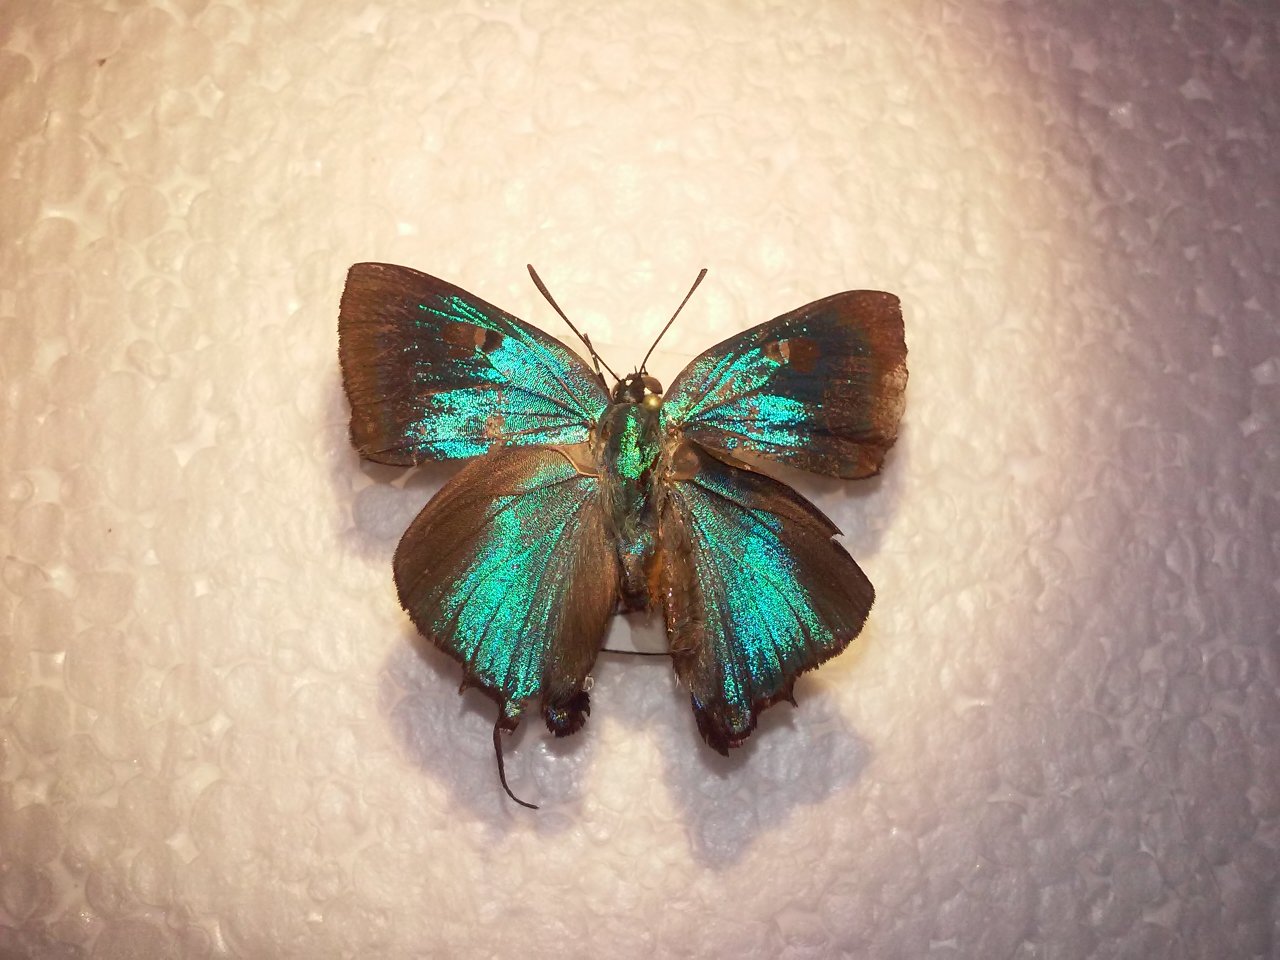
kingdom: Animalia
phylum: Arthropoda
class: Insecta
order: Lepidoptera
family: Lycaenidae
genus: Atlides
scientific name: Atlides halesus
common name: Great Purple Hairstreak
